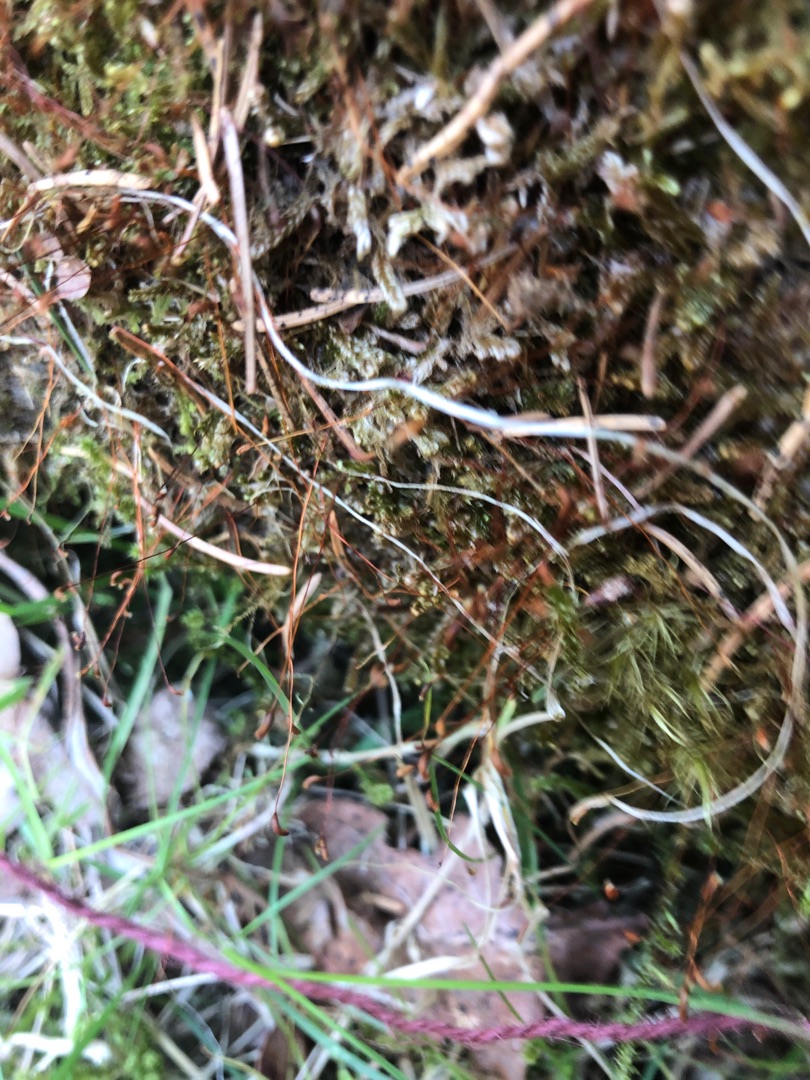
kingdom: Plantae
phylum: Bryophyta
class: Bryopsida
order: Hypnales
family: Hypnaceae
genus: Hypnum
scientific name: Hypnum
